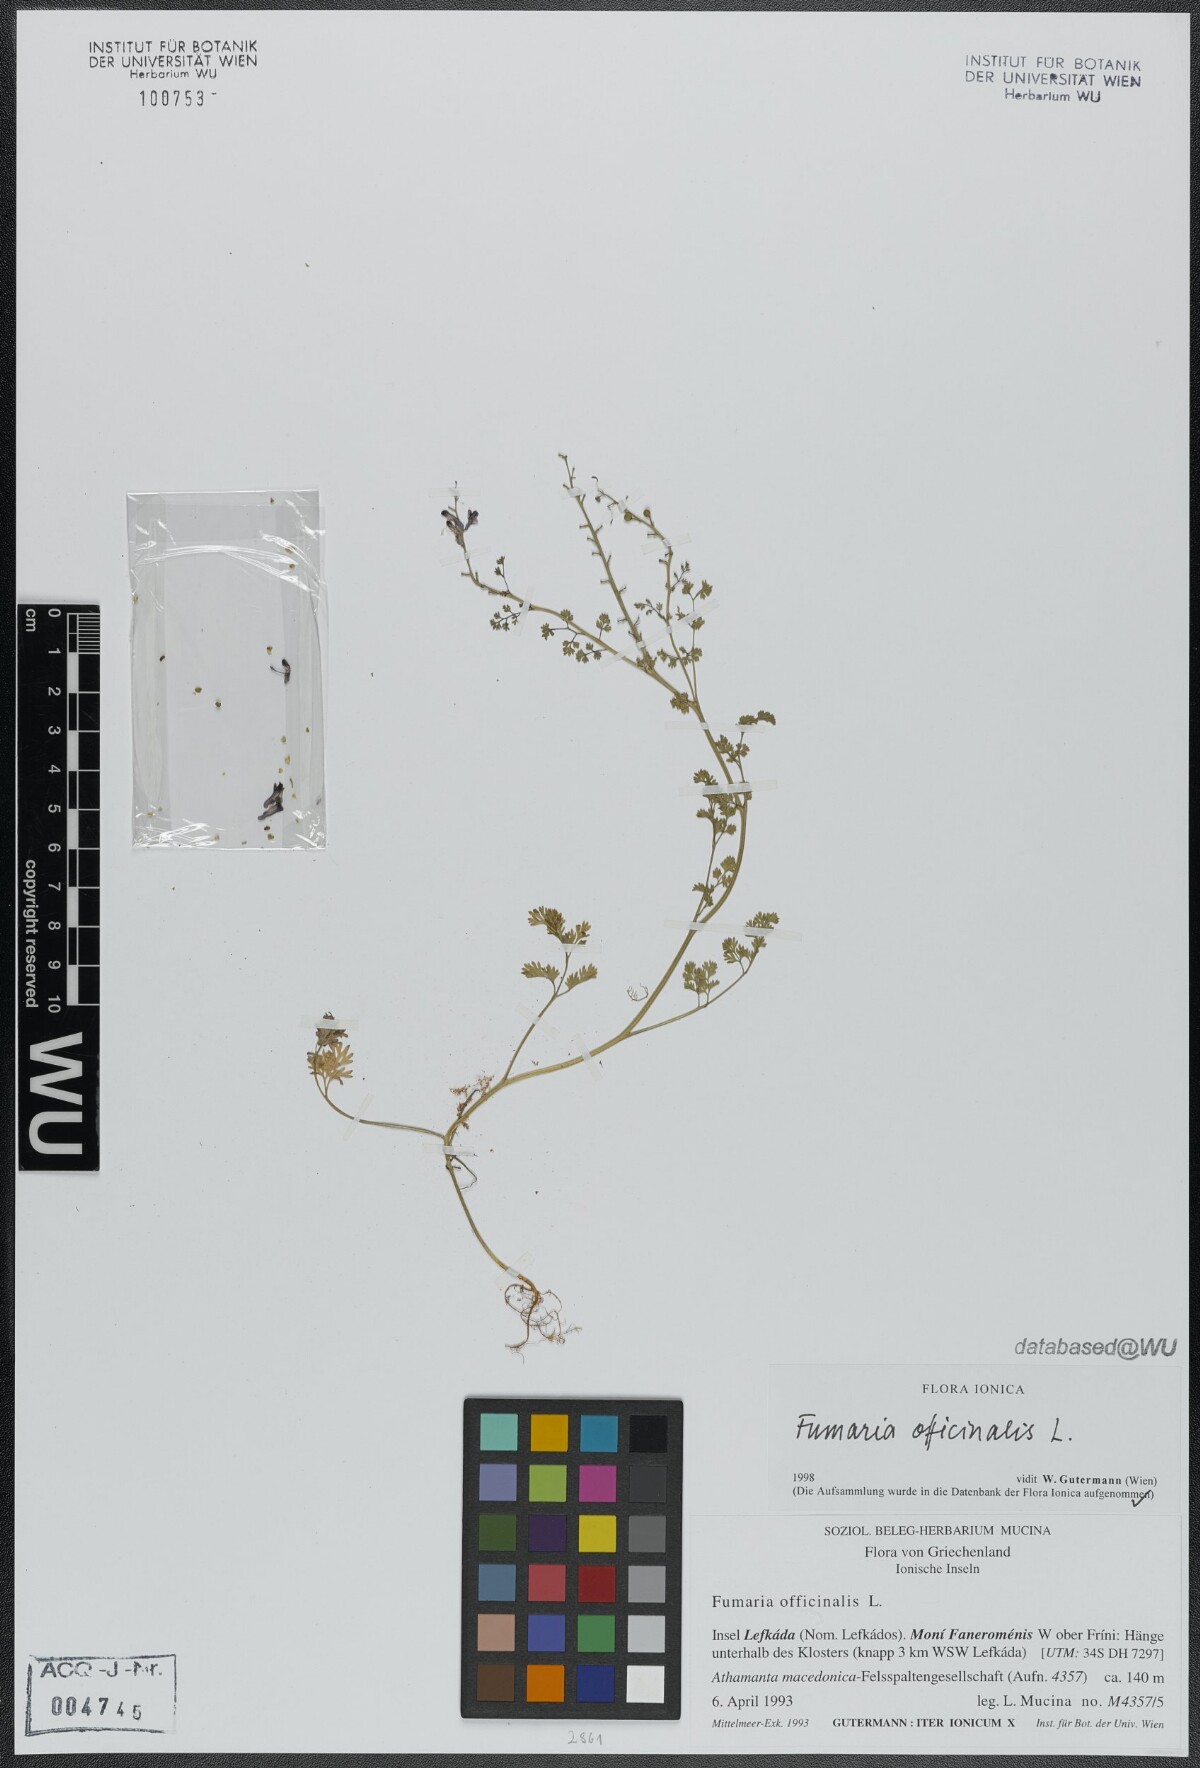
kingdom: Plantae
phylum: Tracheophyta
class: Magnoliopsida
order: Ranunculales
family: Papaveraceae
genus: Fumaria
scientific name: Fumaria officinalis
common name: Common fumitory
